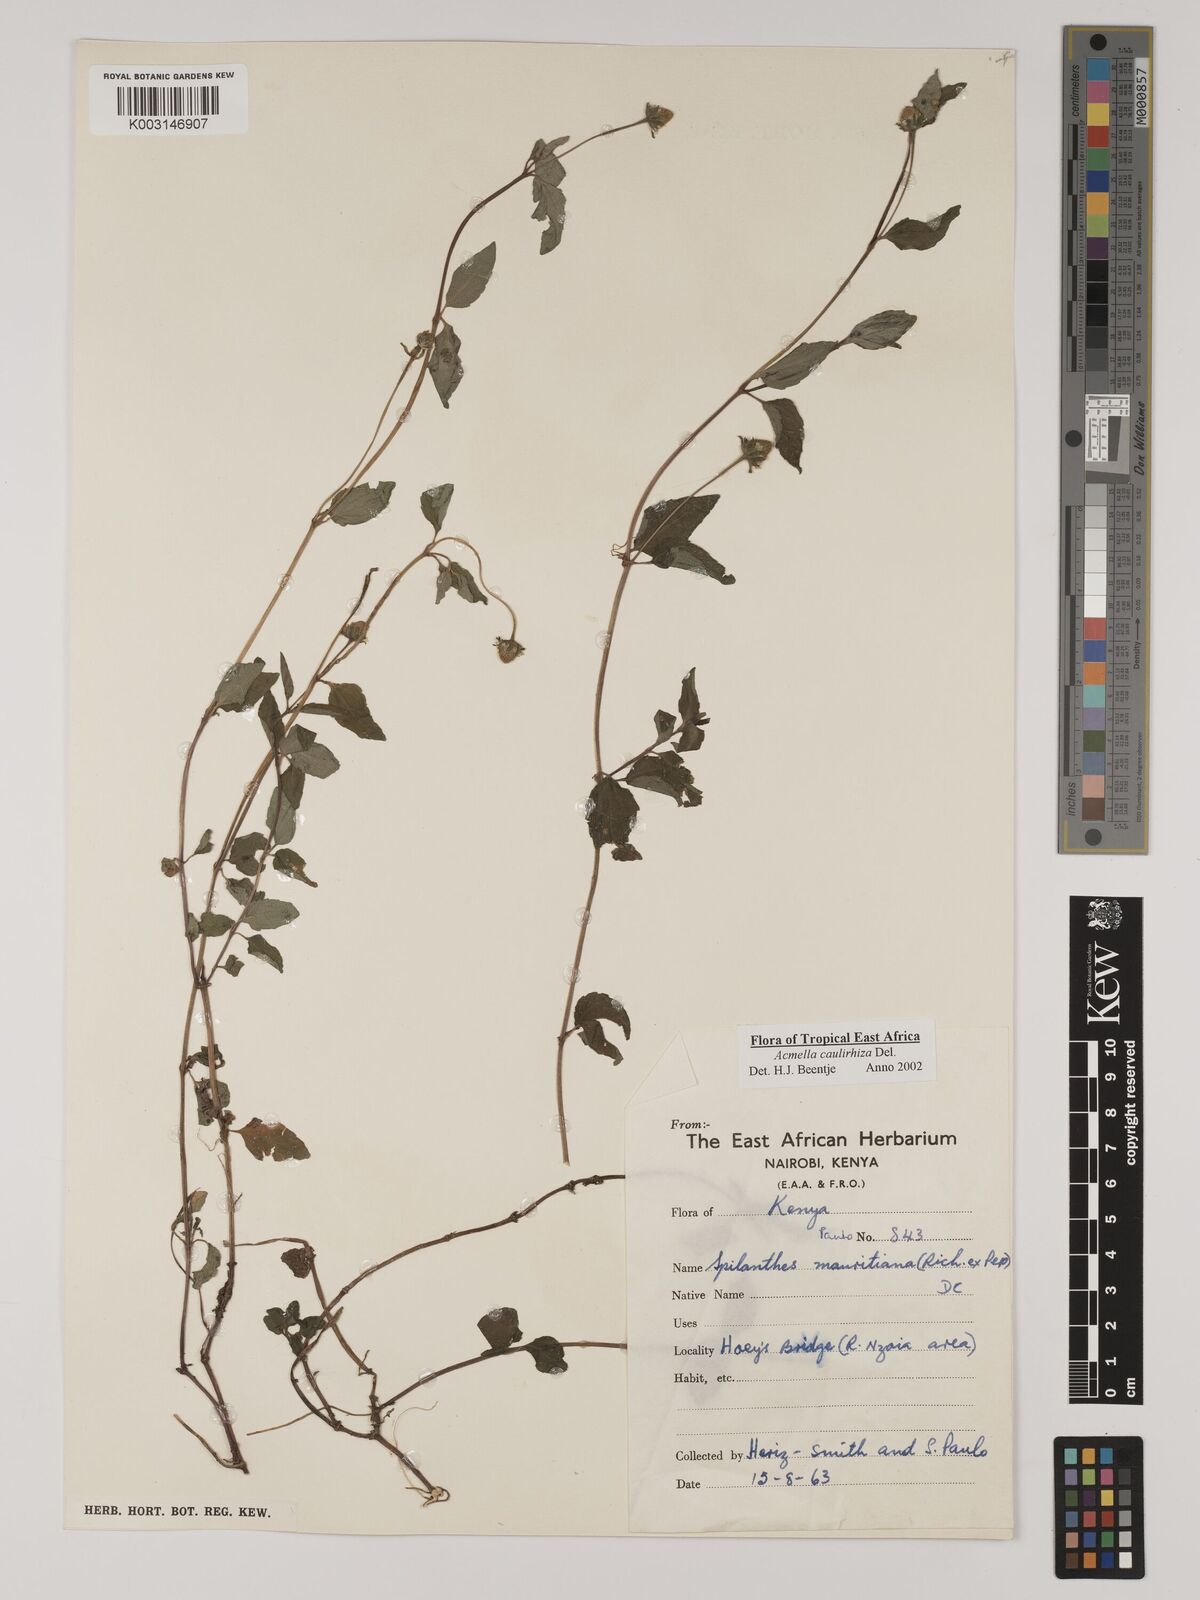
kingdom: Plantae
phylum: Tracheophyta
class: Magnoliopsida
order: Asterales
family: Asteraceae
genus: Acmella
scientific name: Acmella caulirhiza
